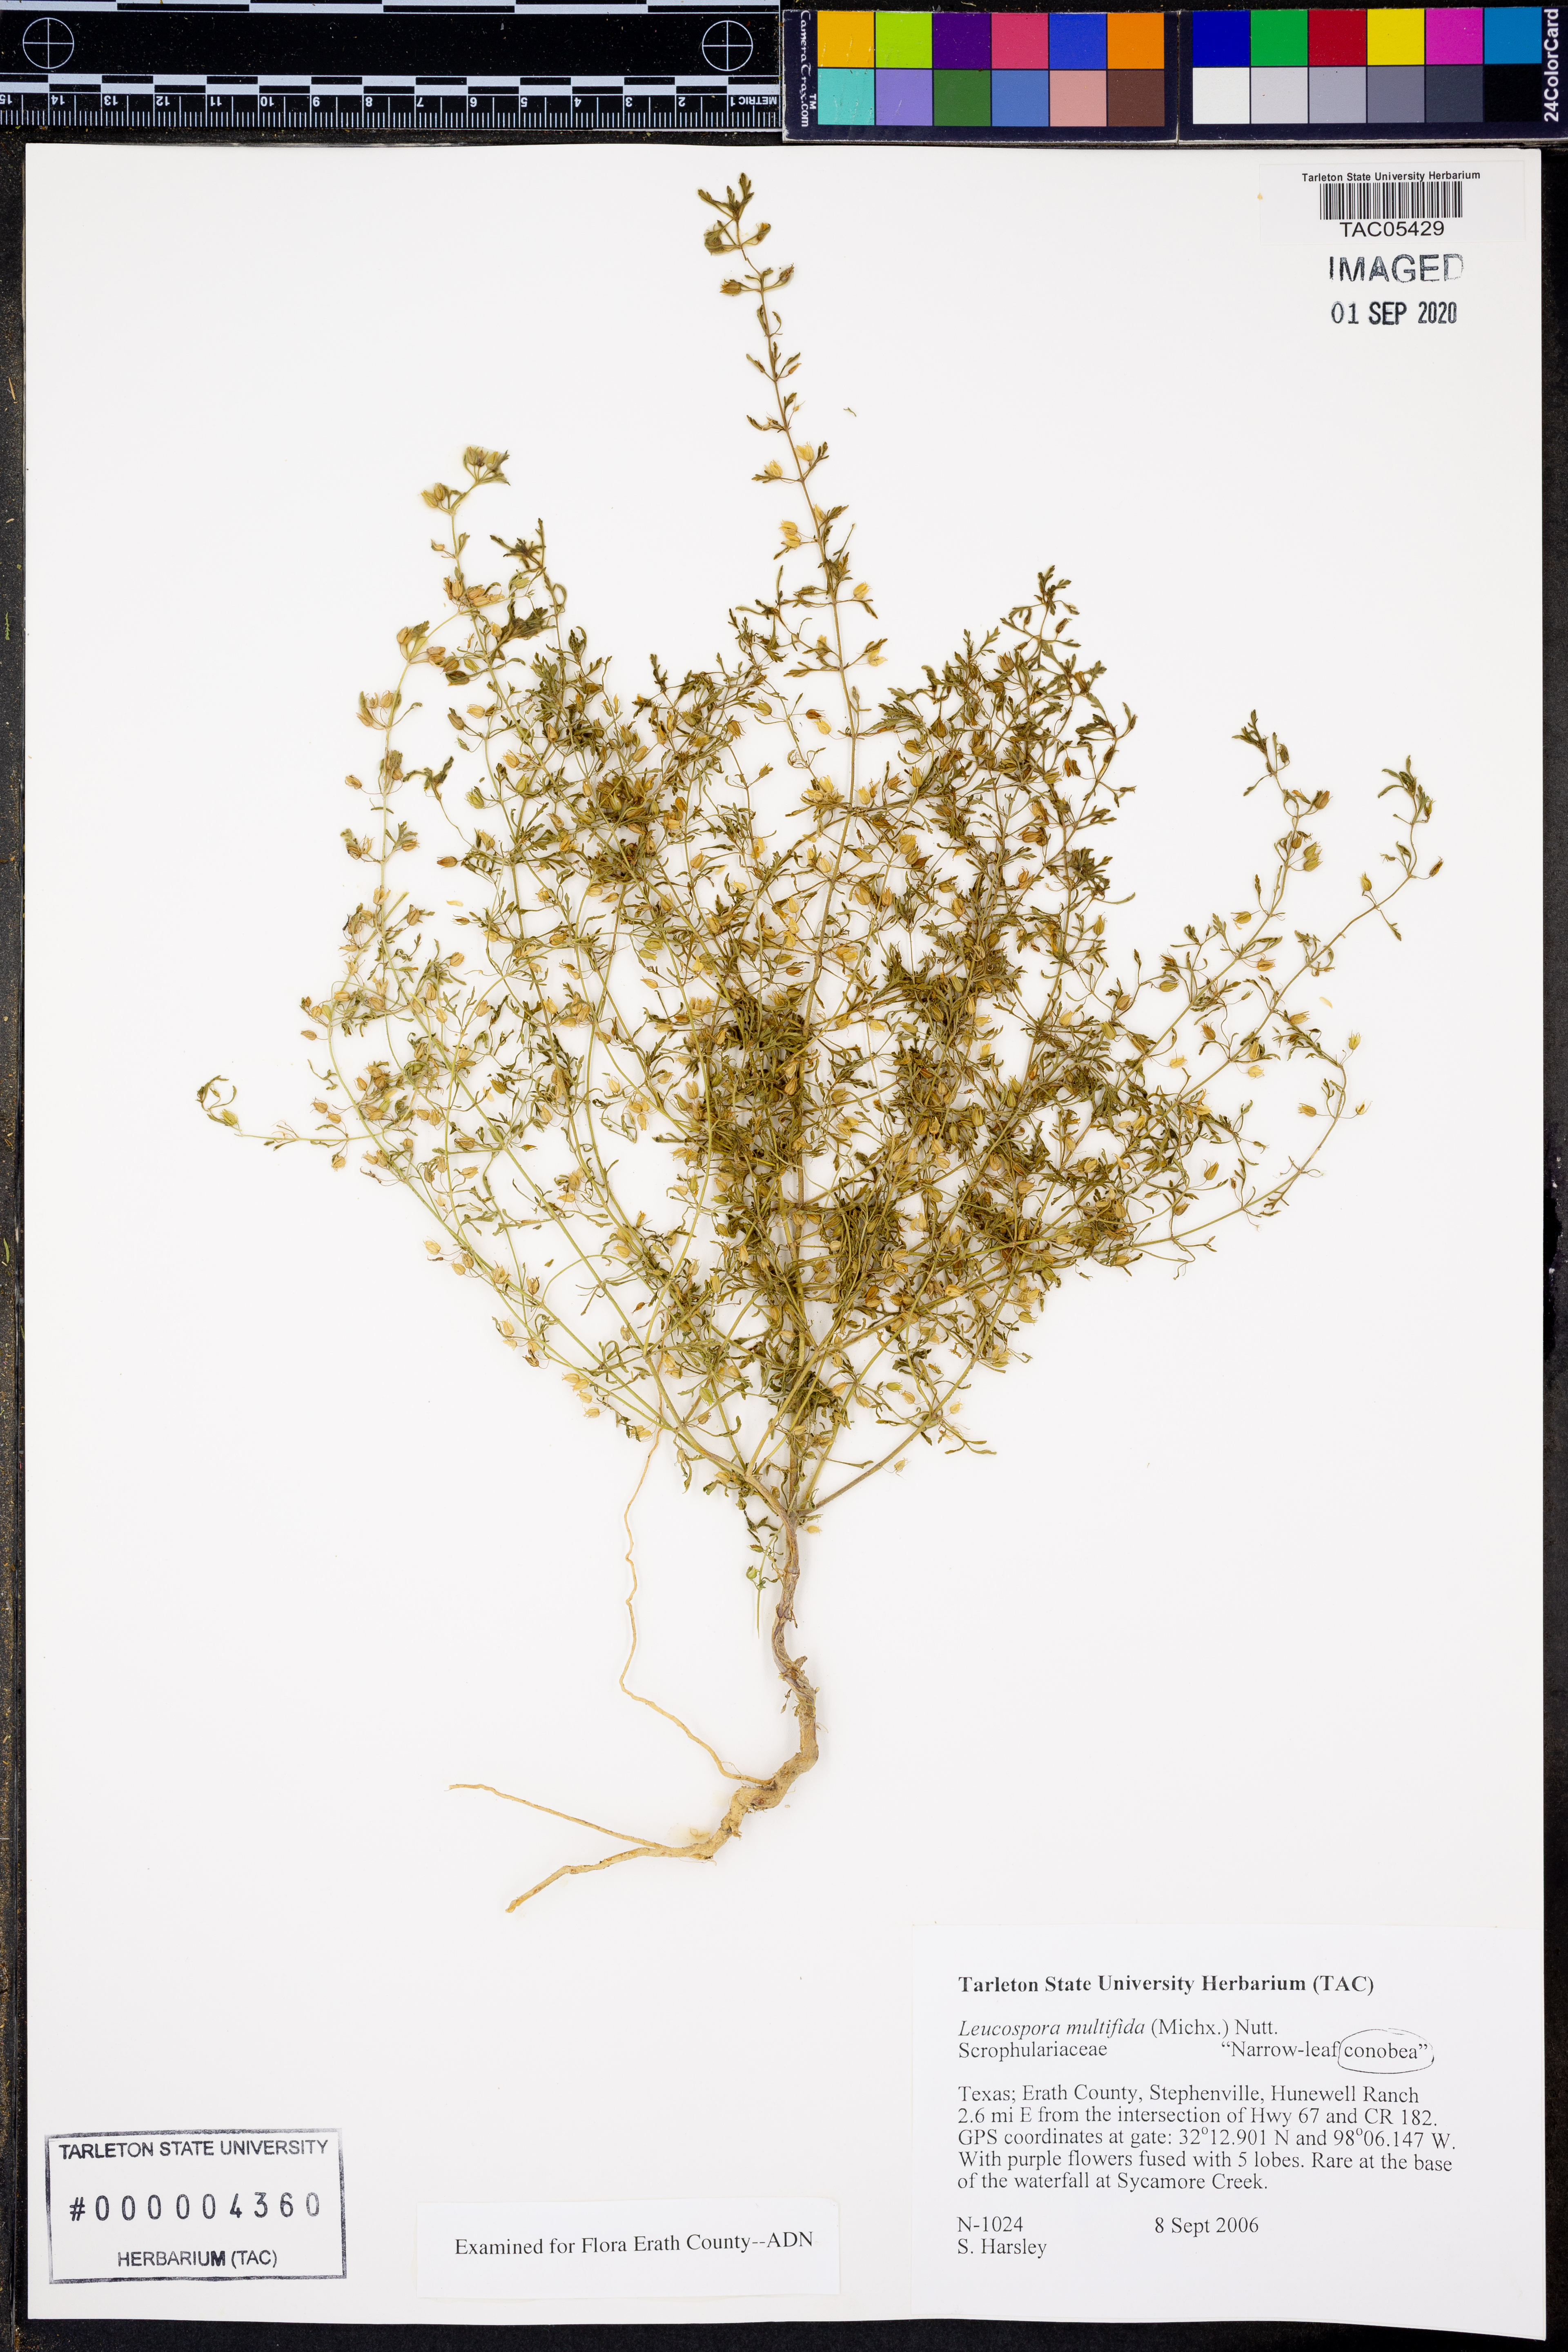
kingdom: Plantae
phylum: Tracheophyta
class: Magnoliopsida
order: Lamiales
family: Plantaginaceae
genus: Leucospora
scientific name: Leucospora multifida
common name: Narrow-leaf paleseed
